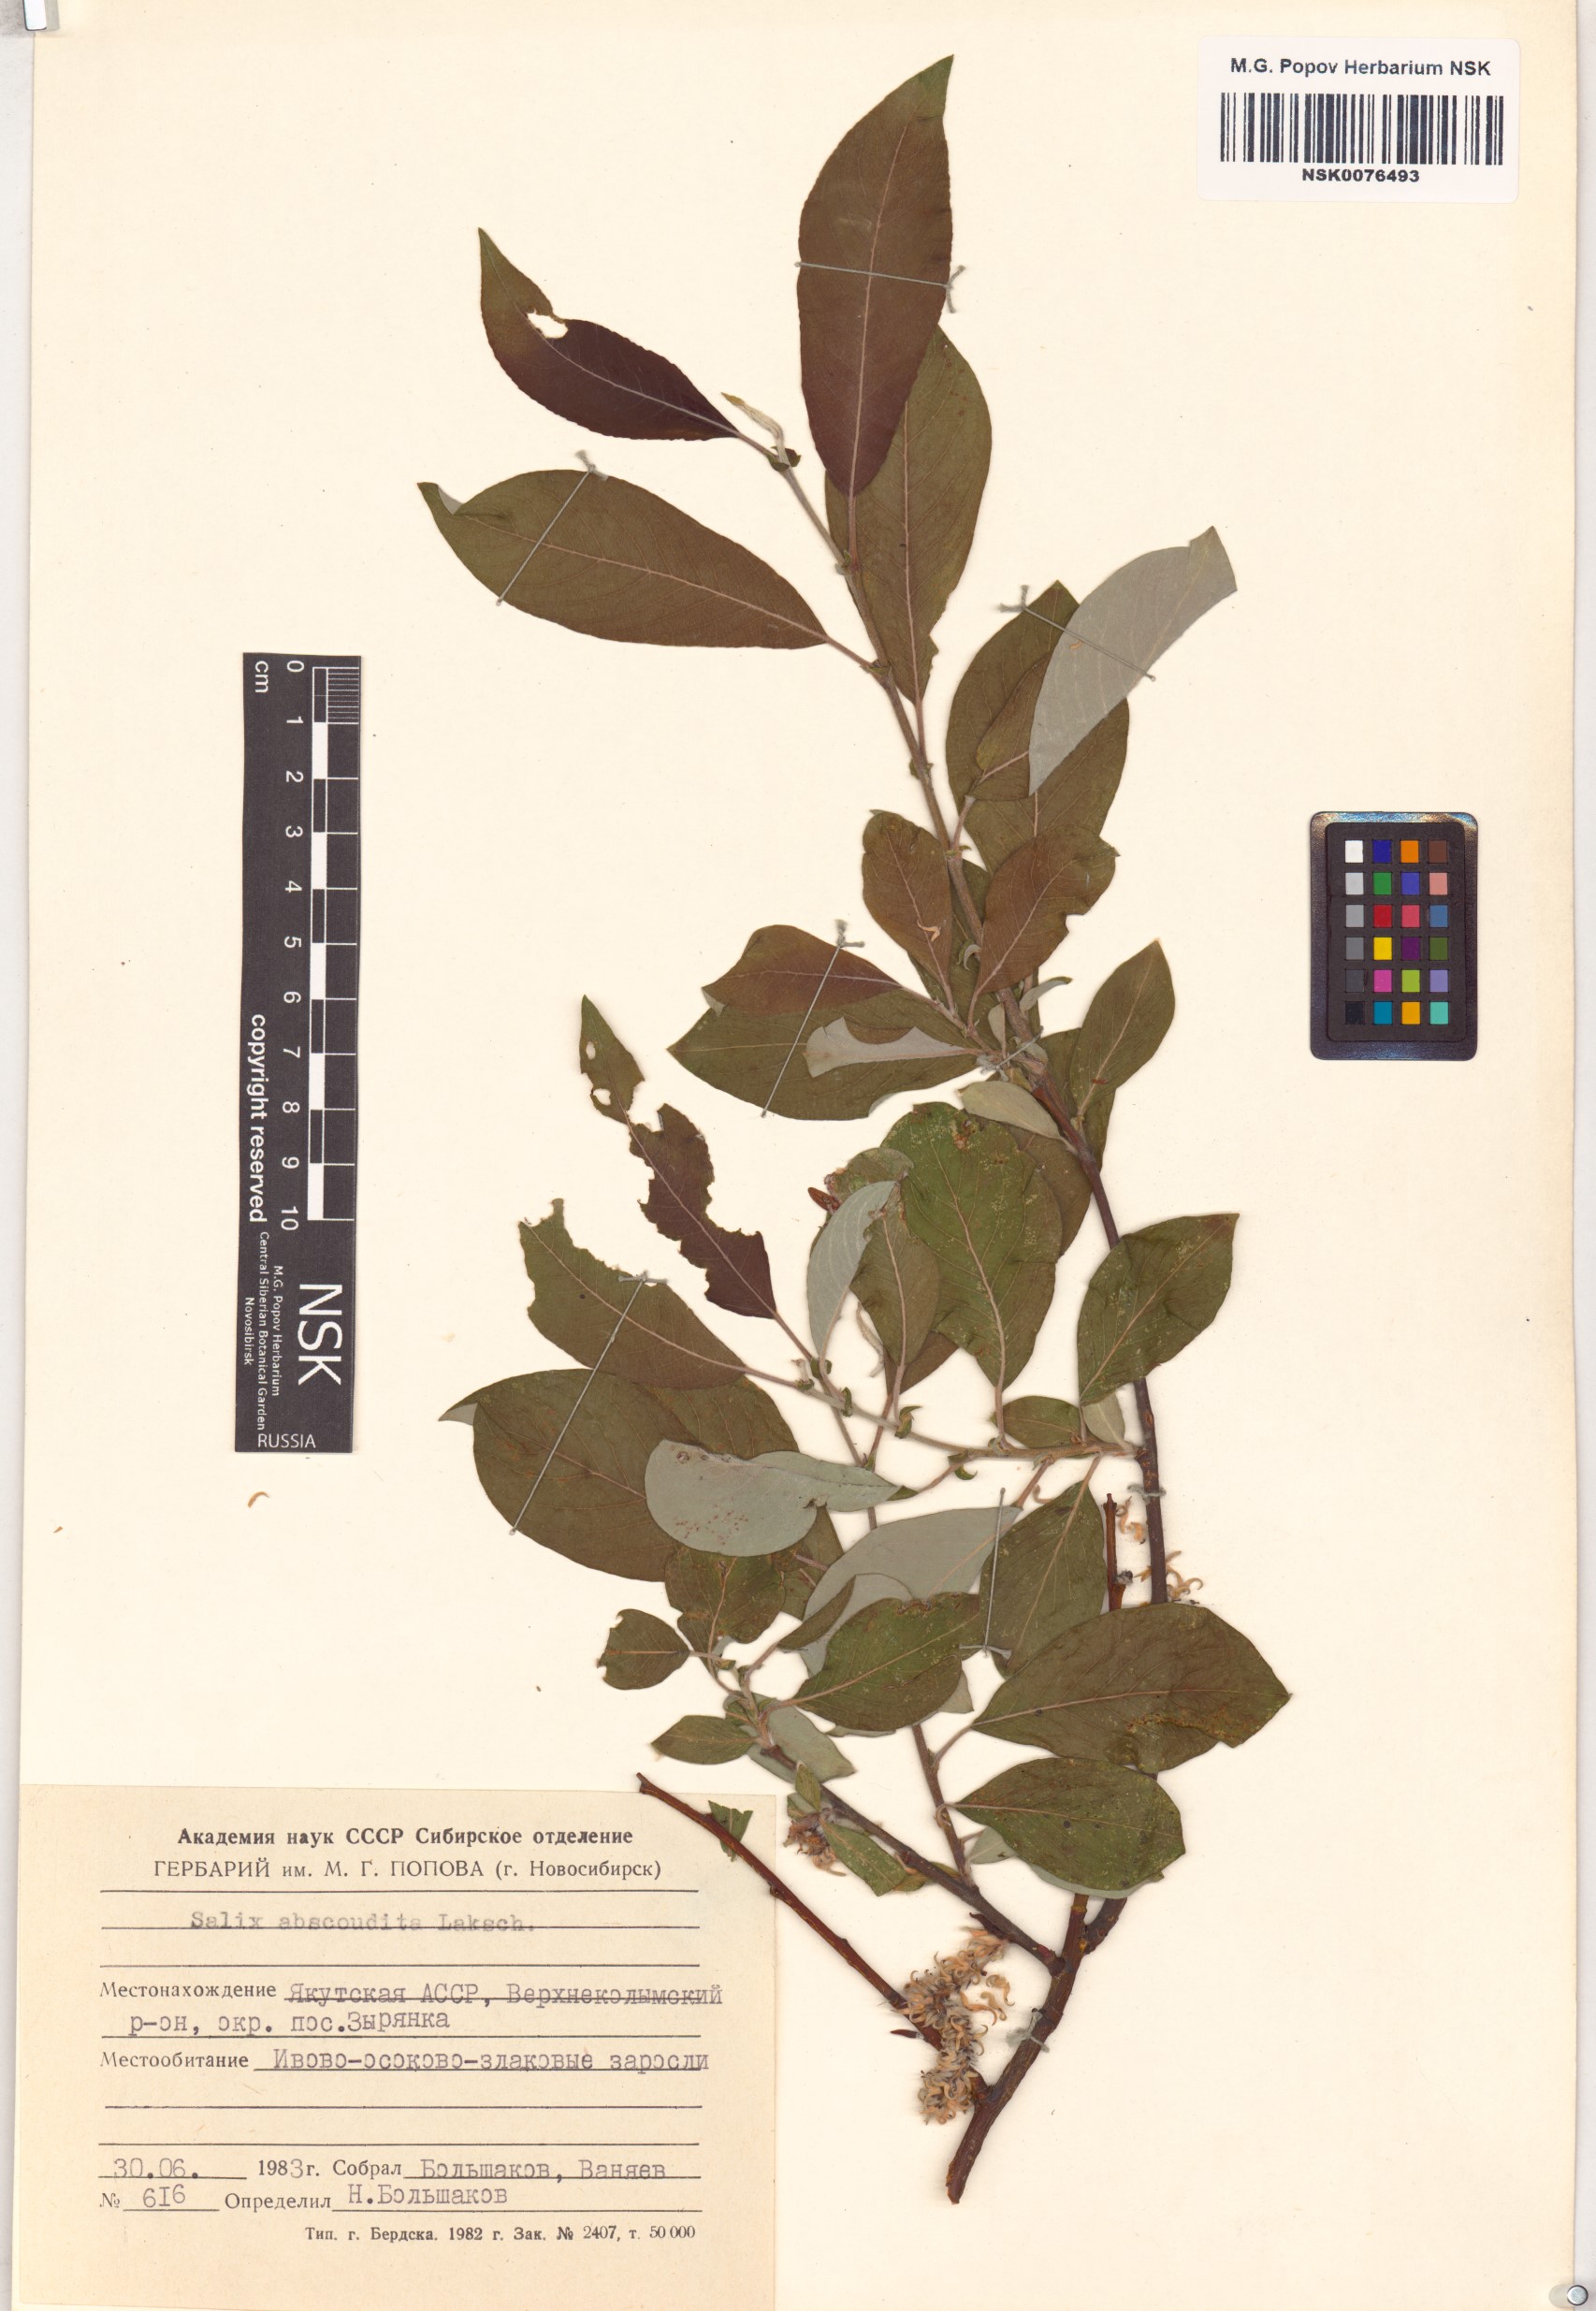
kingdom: Plantae
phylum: Tracheophyta
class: Magnoliopsida
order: Malpighiales
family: Salicaceae
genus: Salix
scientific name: Salix abscondita
